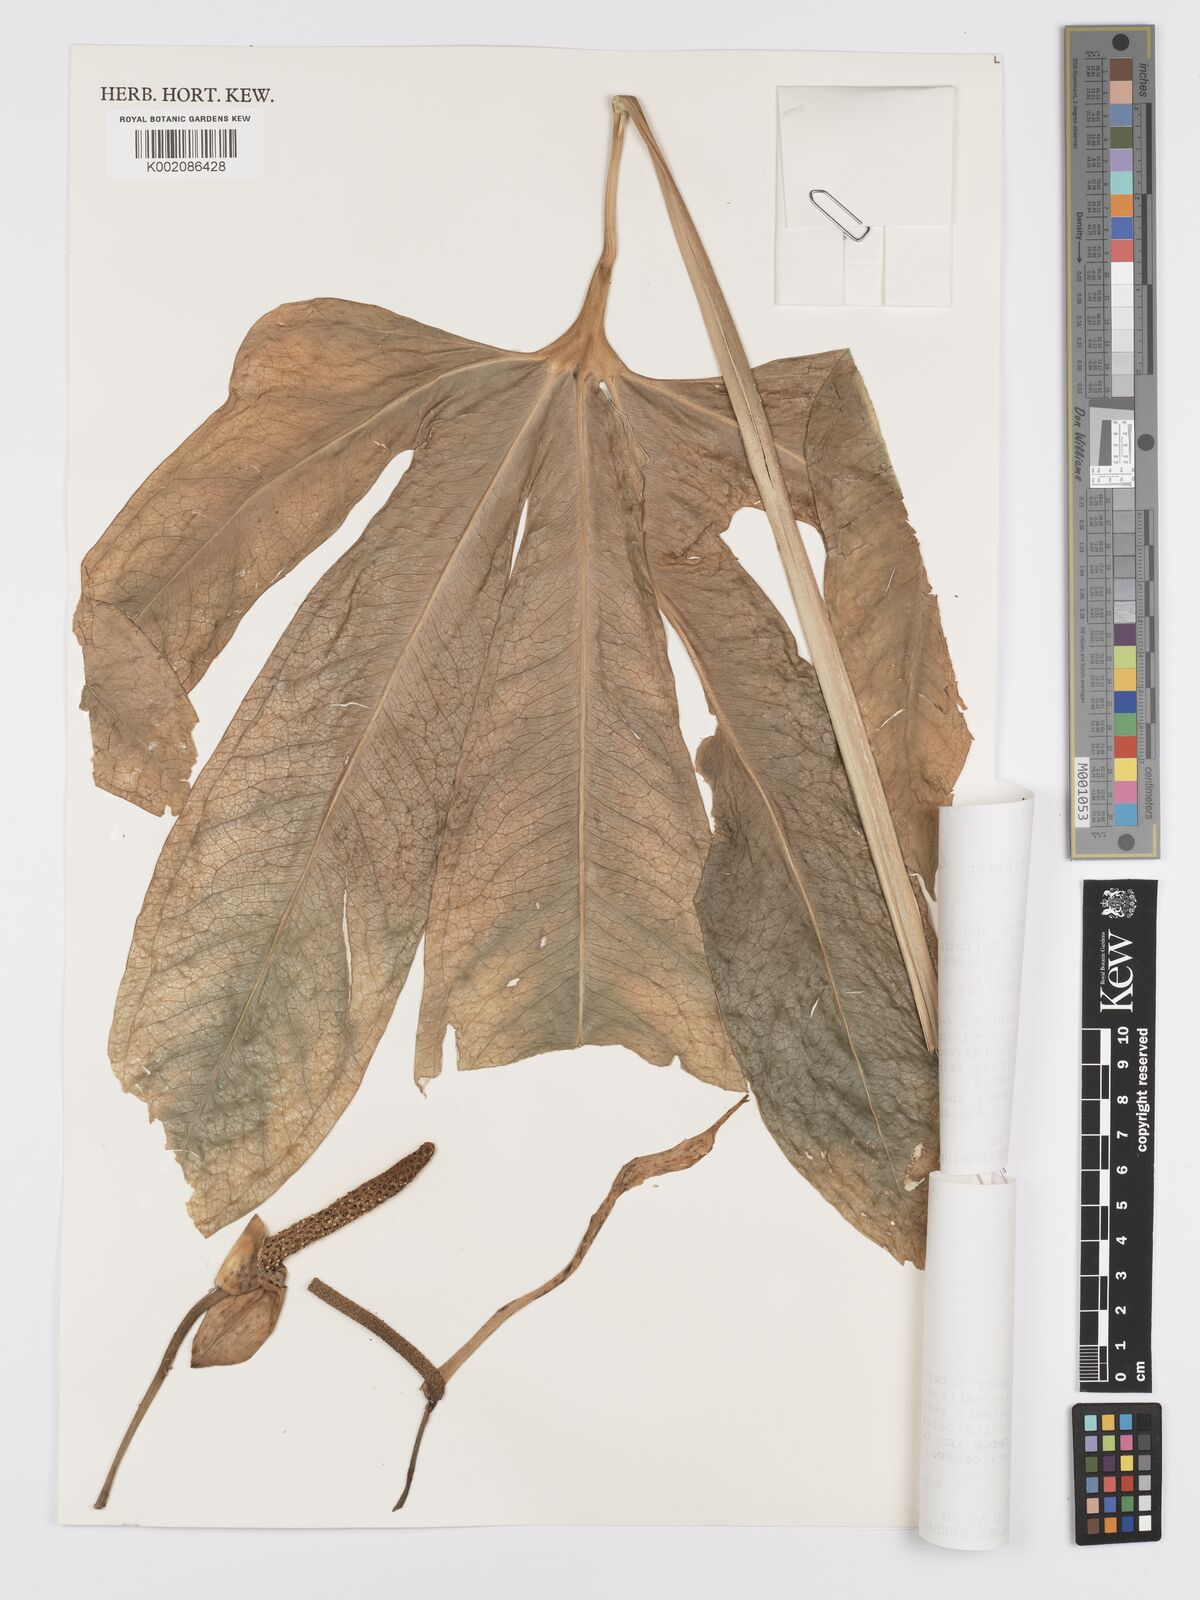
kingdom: Plantae
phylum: Tracheophyta
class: Liliopsida
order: Alismatales
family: Araceae
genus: Anthurium
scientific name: Anthurium longissimum
